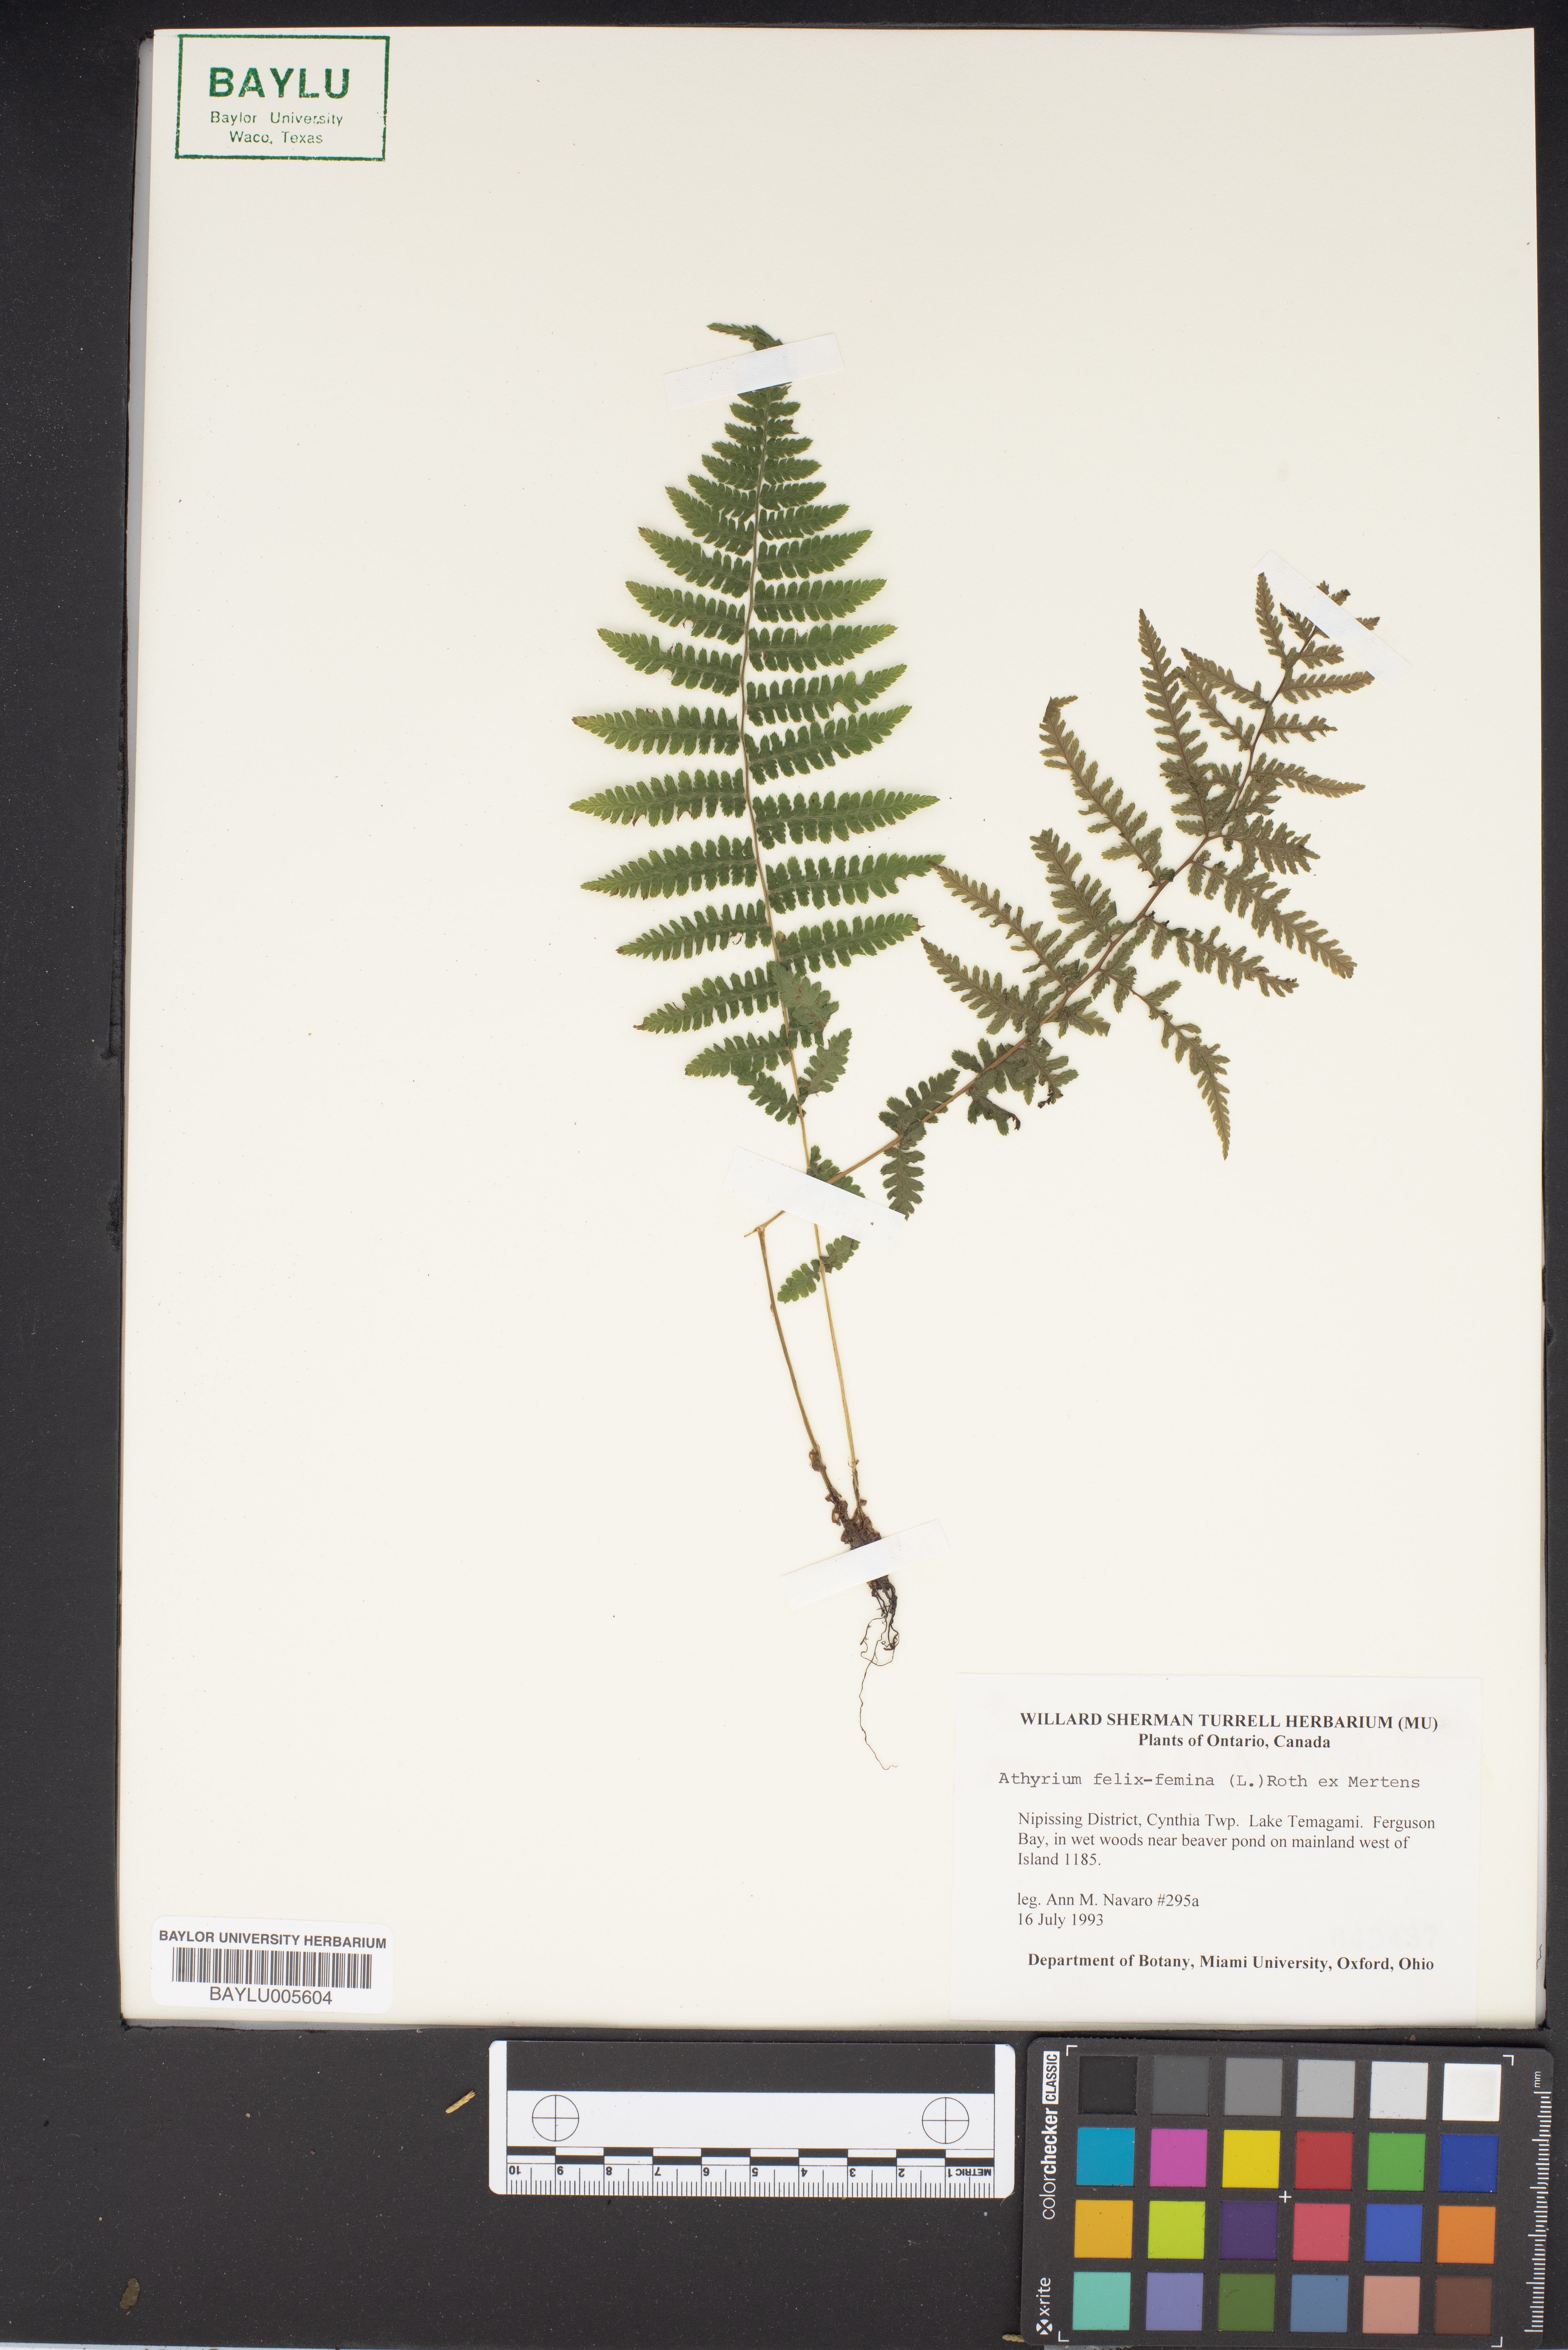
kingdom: Plantae
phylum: Tracheophyta
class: Polypodiopsida
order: Polypodiales
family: Athyriaceae
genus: Athyrium
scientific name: Athyrium filix-femina
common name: Lady fern
